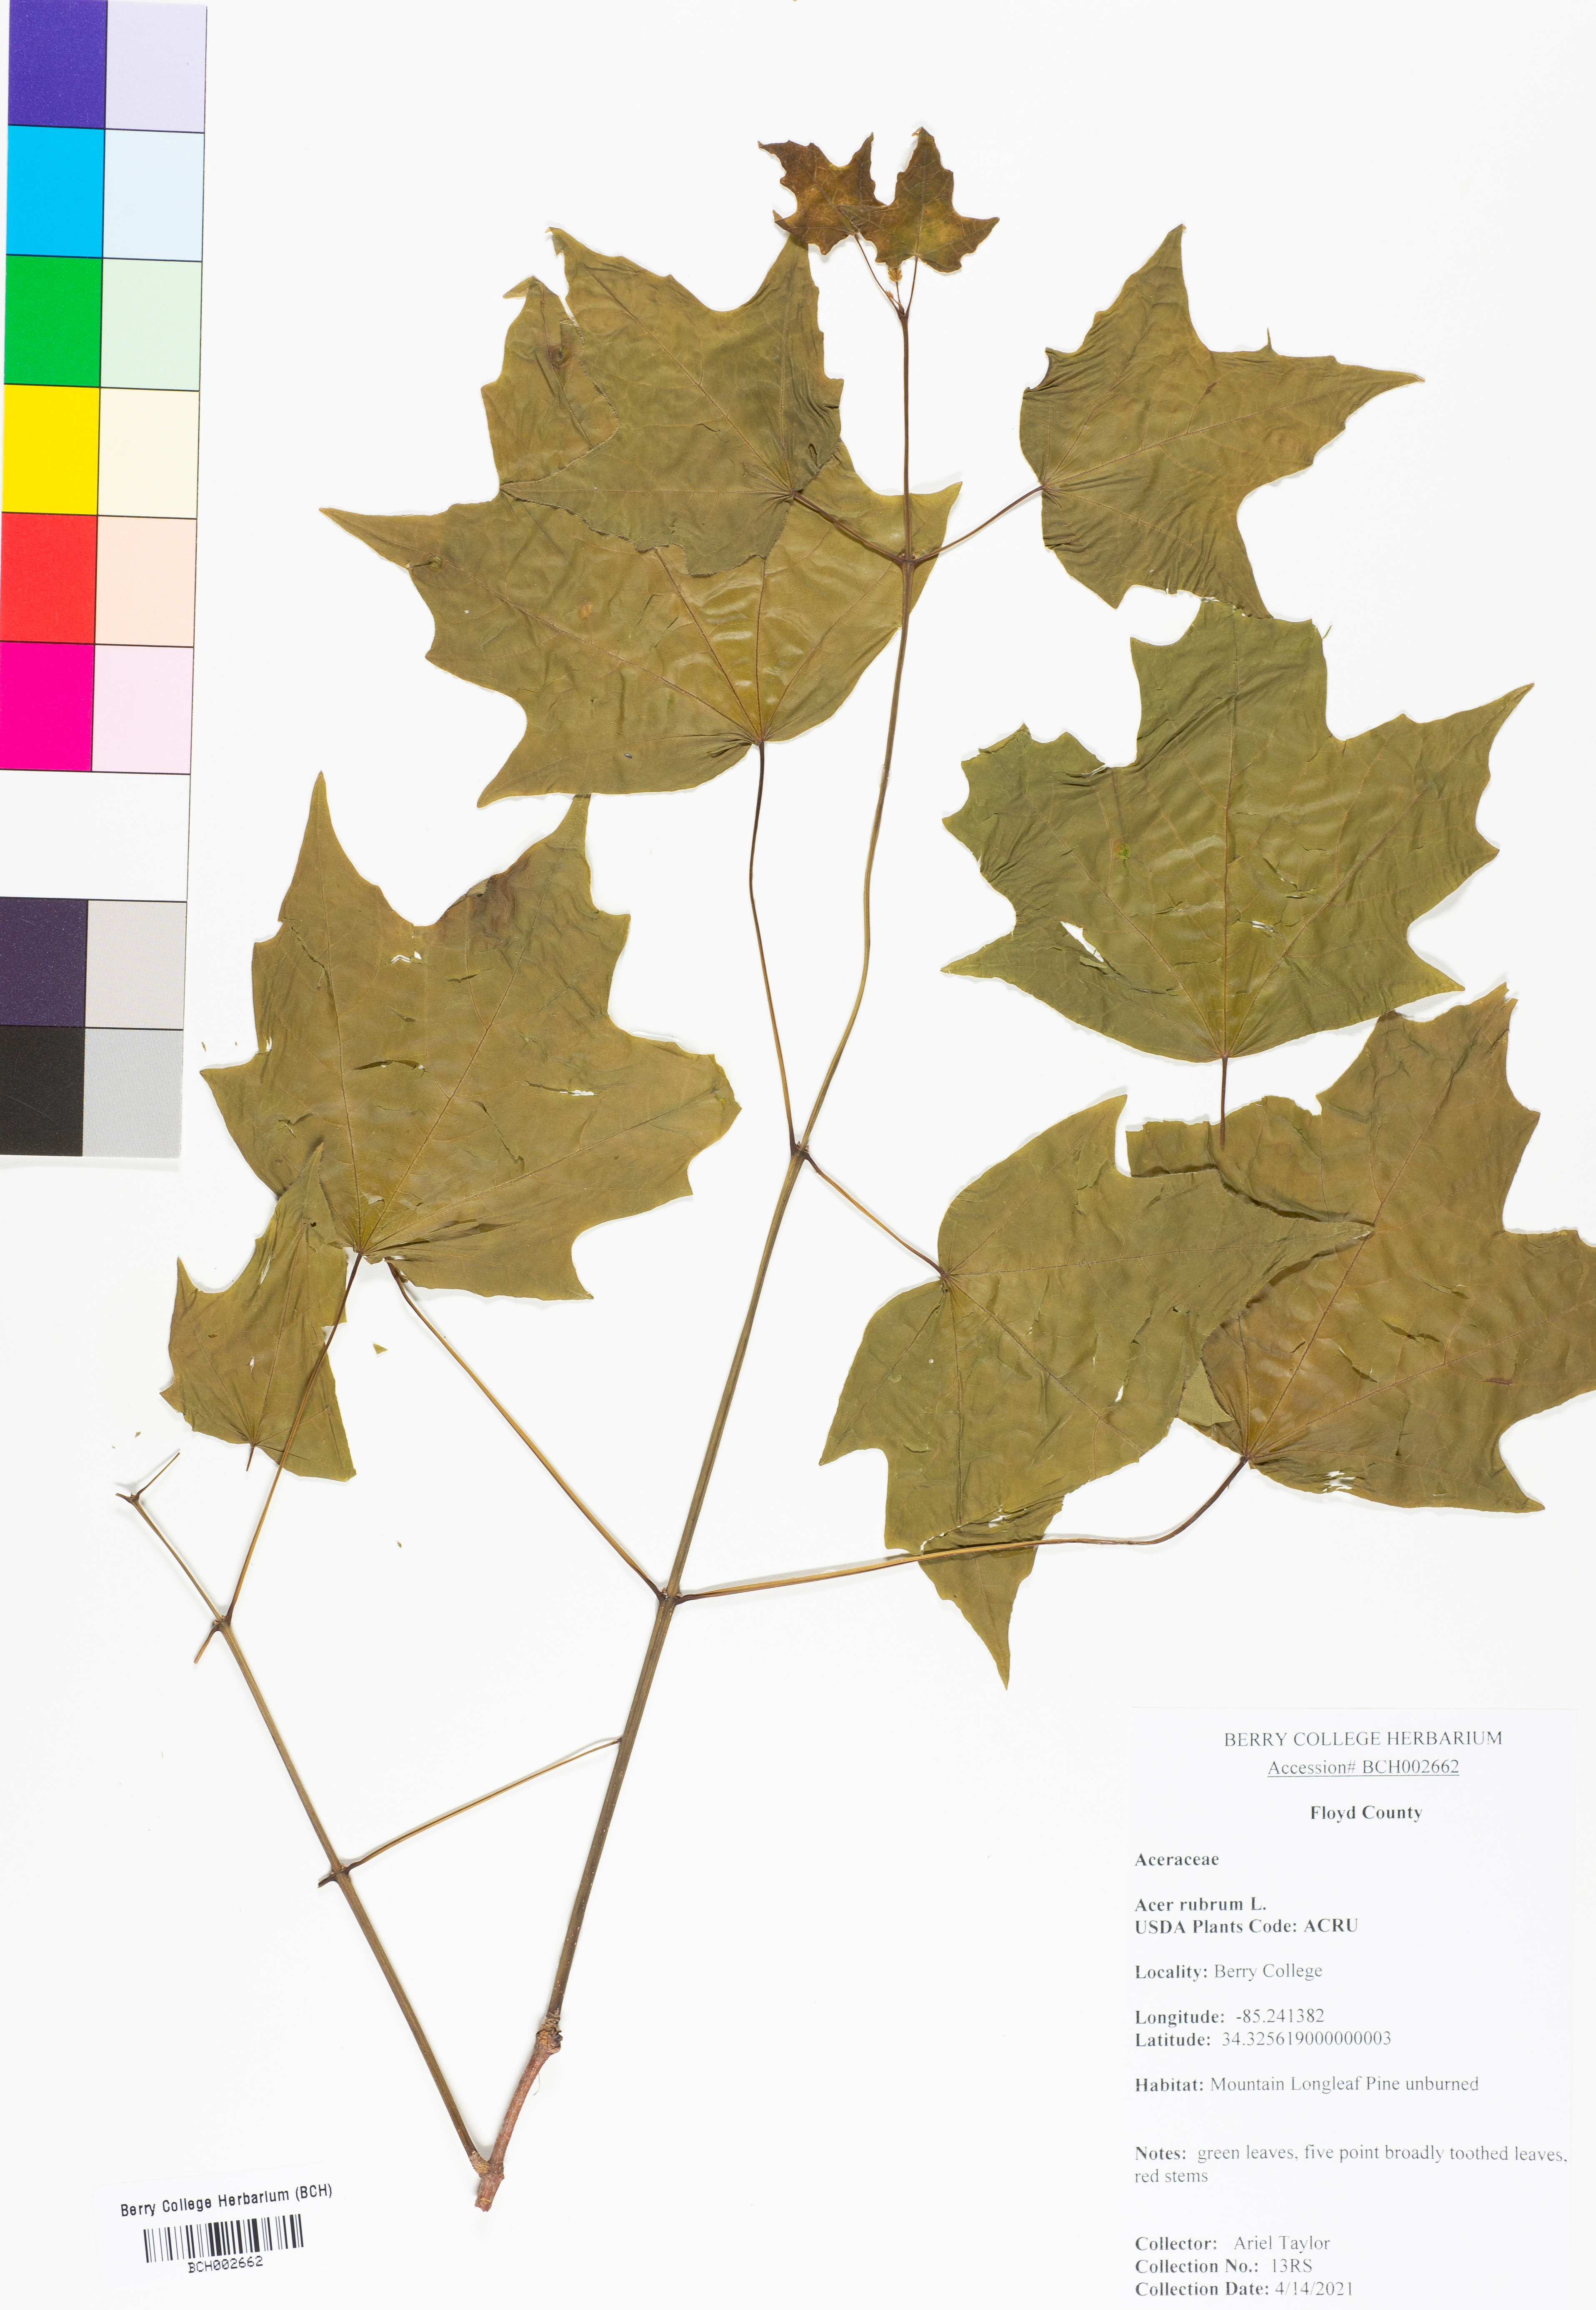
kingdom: Plantae
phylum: Tracheophyta
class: Magnoliopsida
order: Sapindales
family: Sapindaceae
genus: Acer
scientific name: Acer rubrum
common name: Red maple
